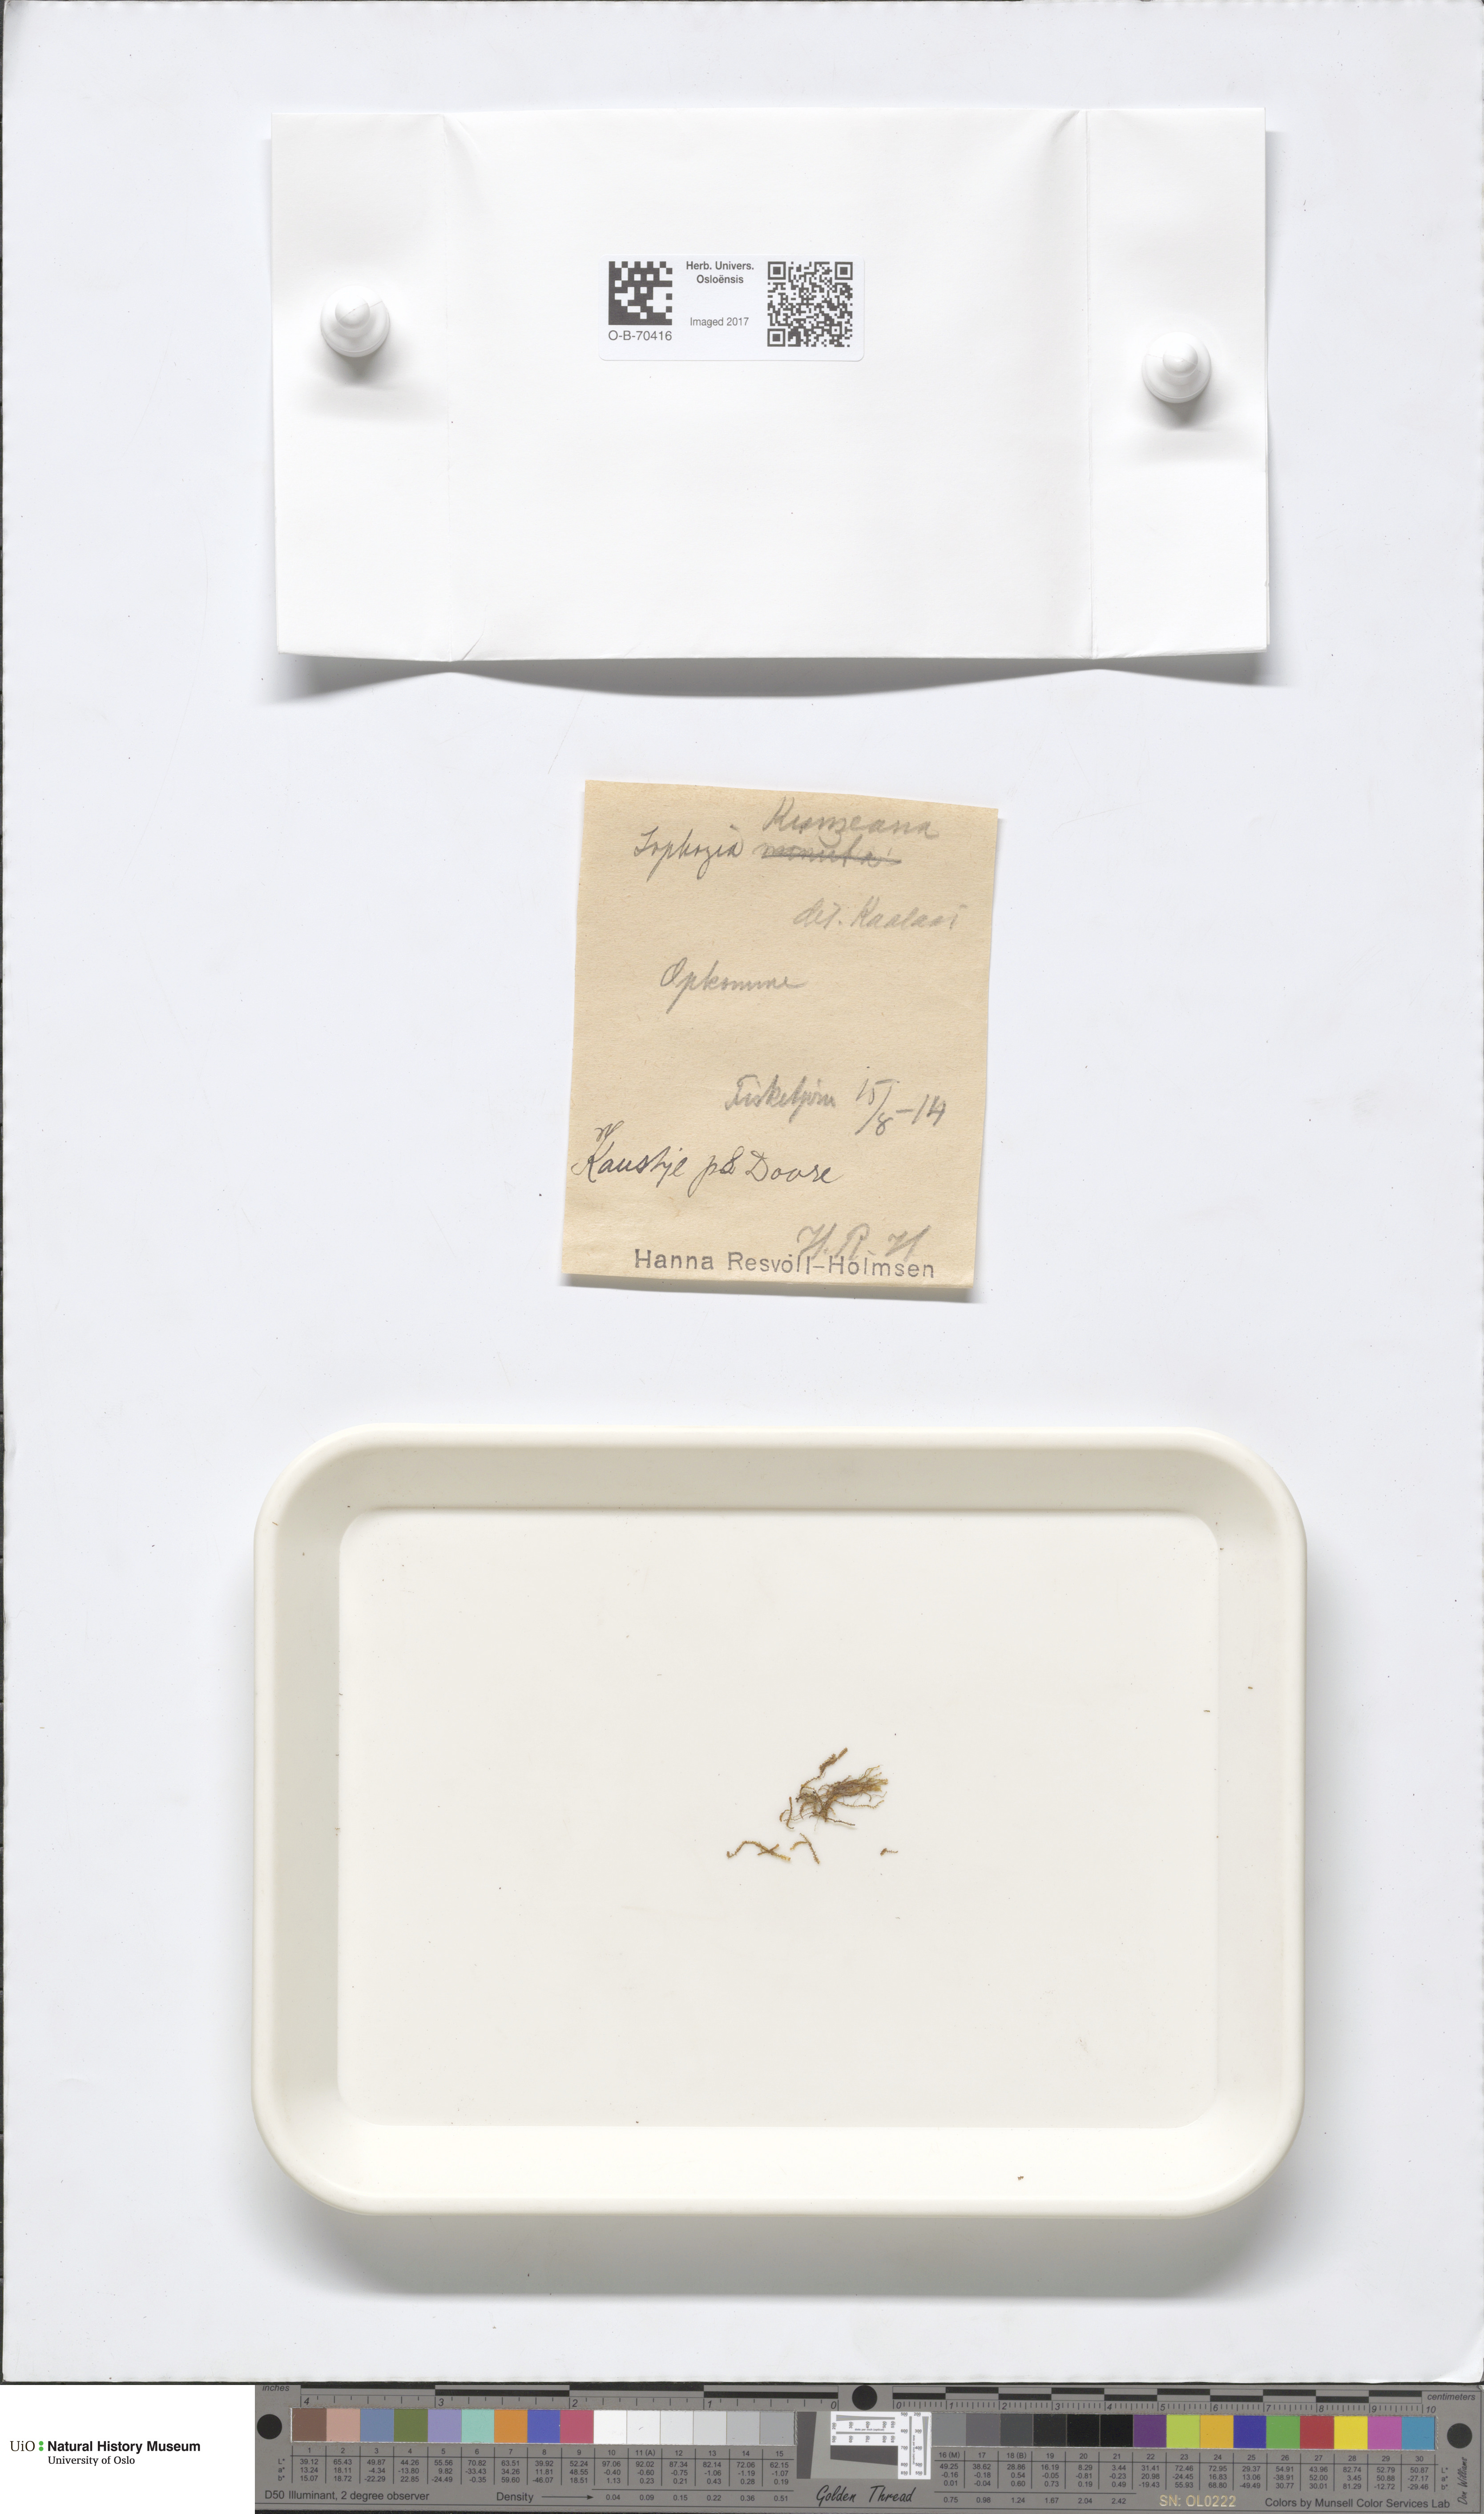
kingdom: Plantae
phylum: Marchantiophyta
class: Jungermanniopsida
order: Jungermanniales
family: Anastrophyllaceae
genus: Schljakovia
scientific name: Schljakovia kunzeana
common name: Kunze's pawwort
